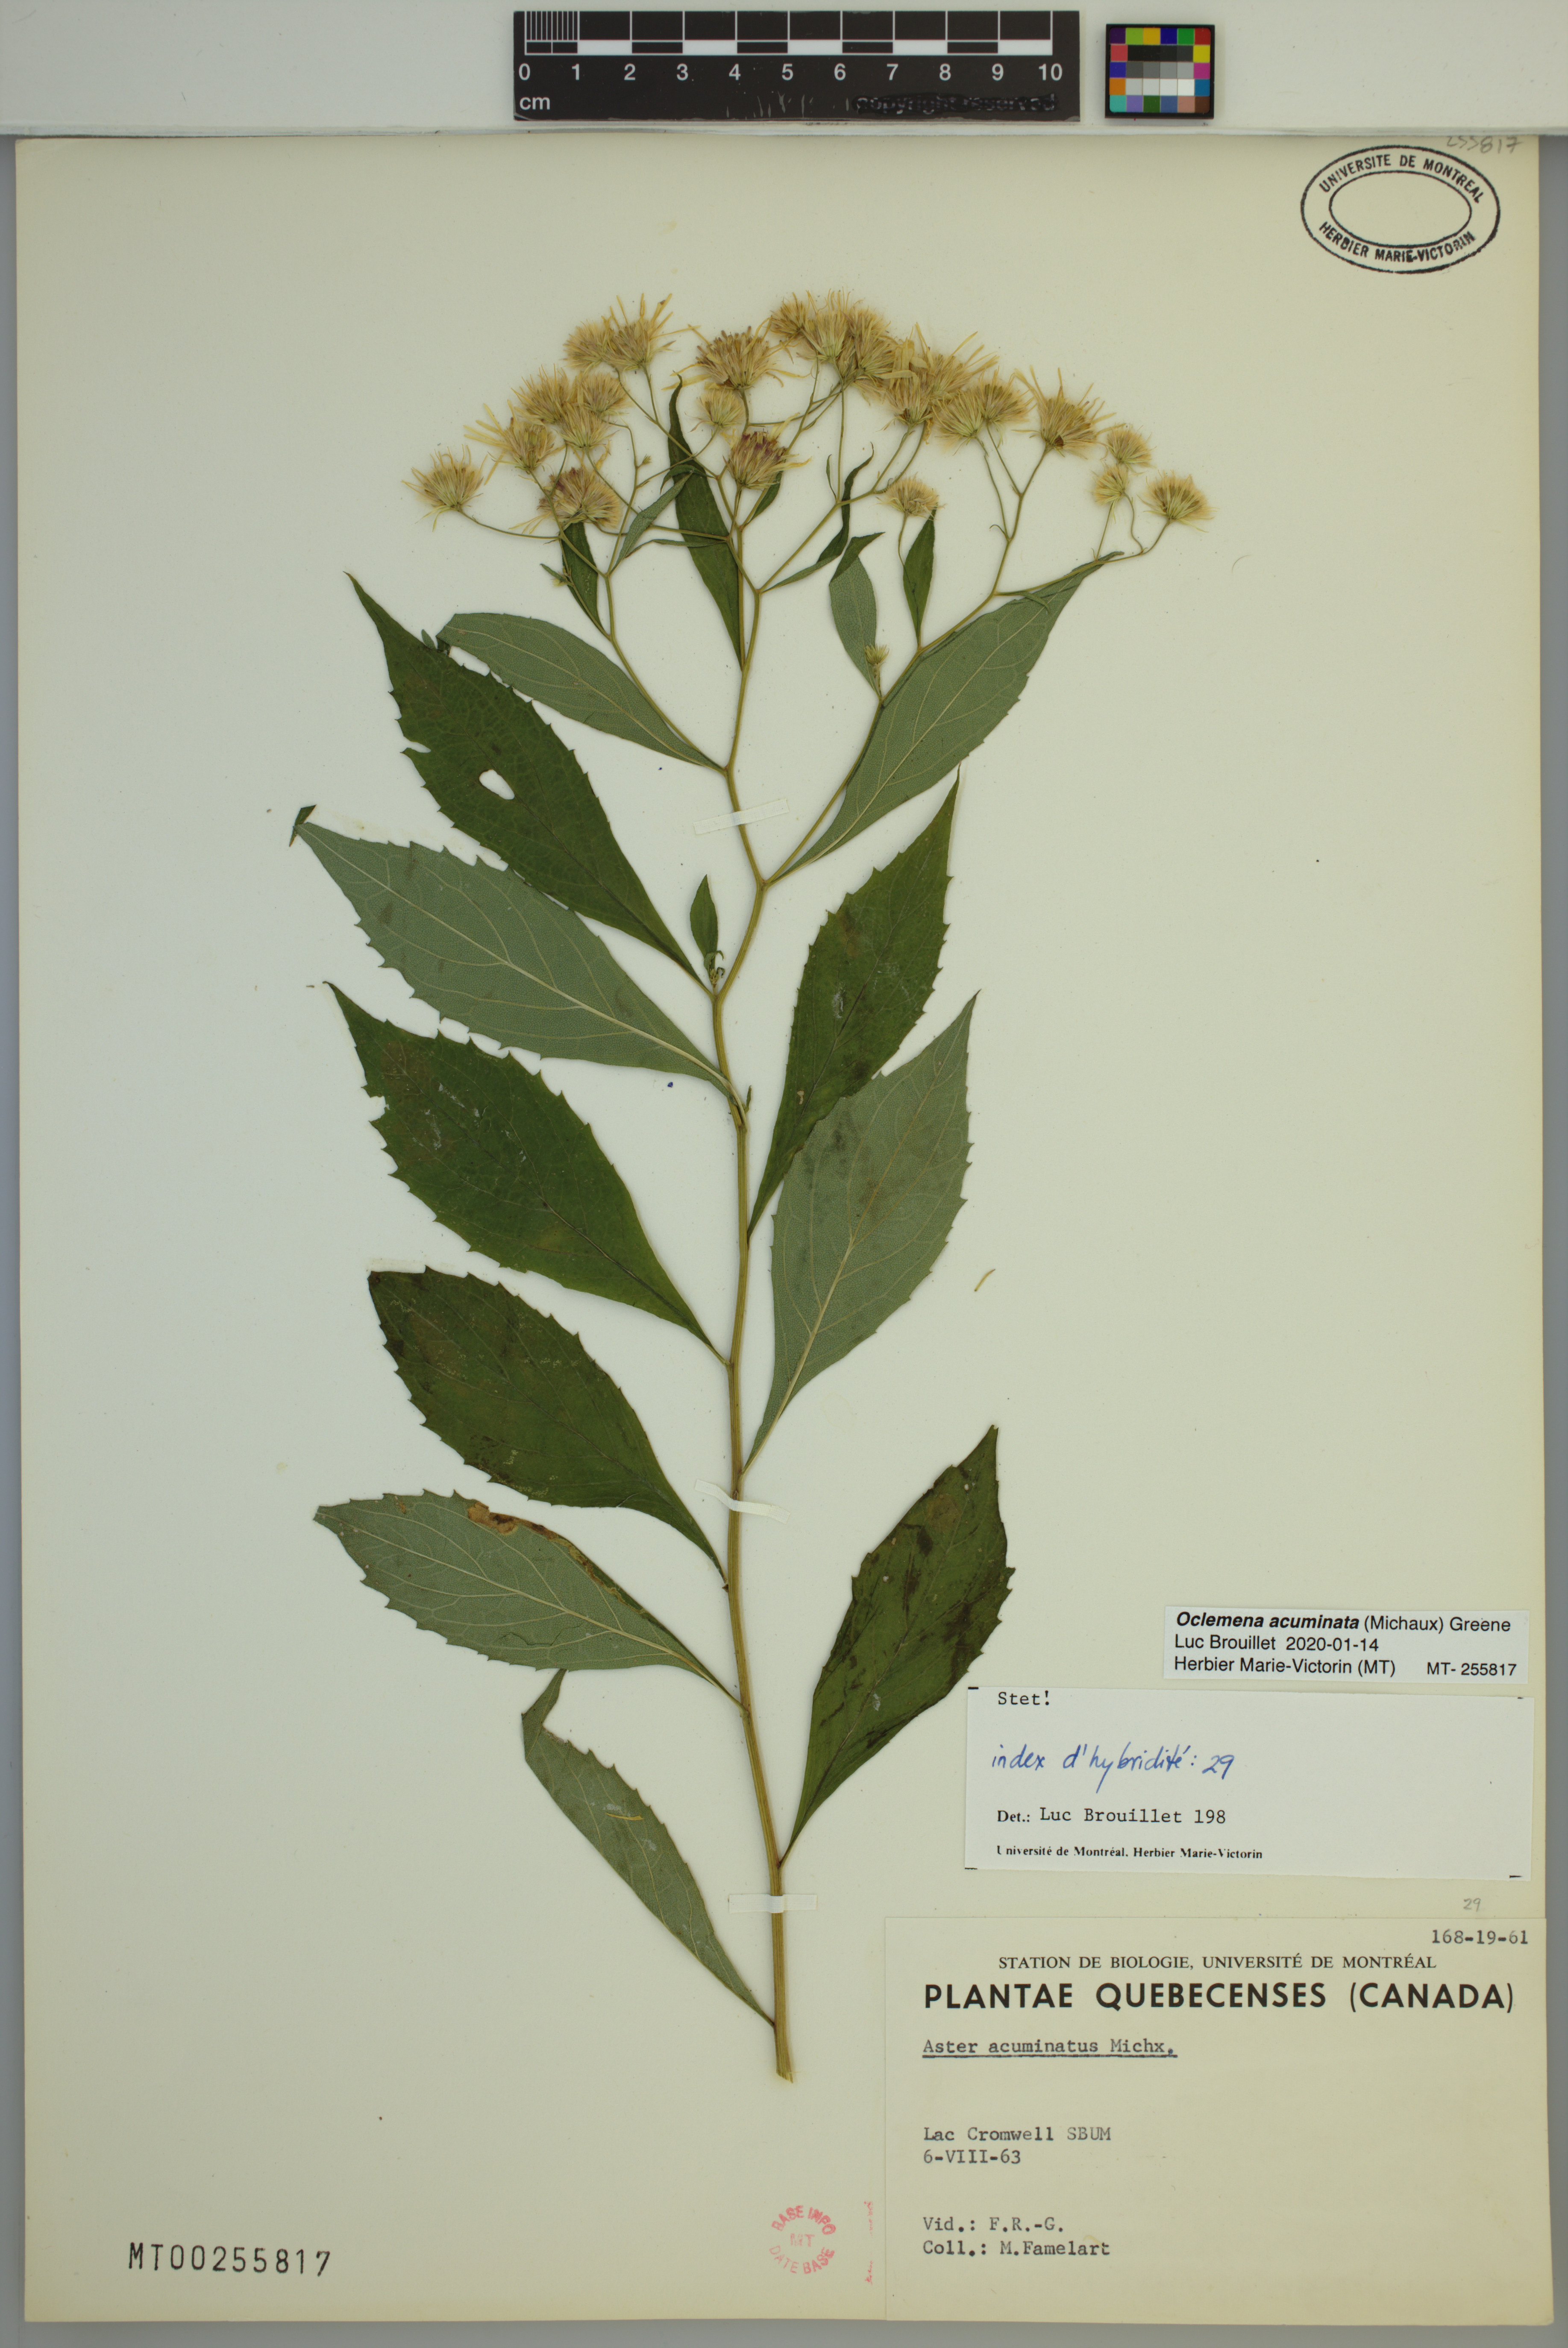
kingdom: Plantae
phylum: Tracheophyta
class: Magnoliopsida
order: Asterales
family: Asteraceae
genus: Oclemena
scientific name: Oclemena acuminata
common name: Mountain aster
